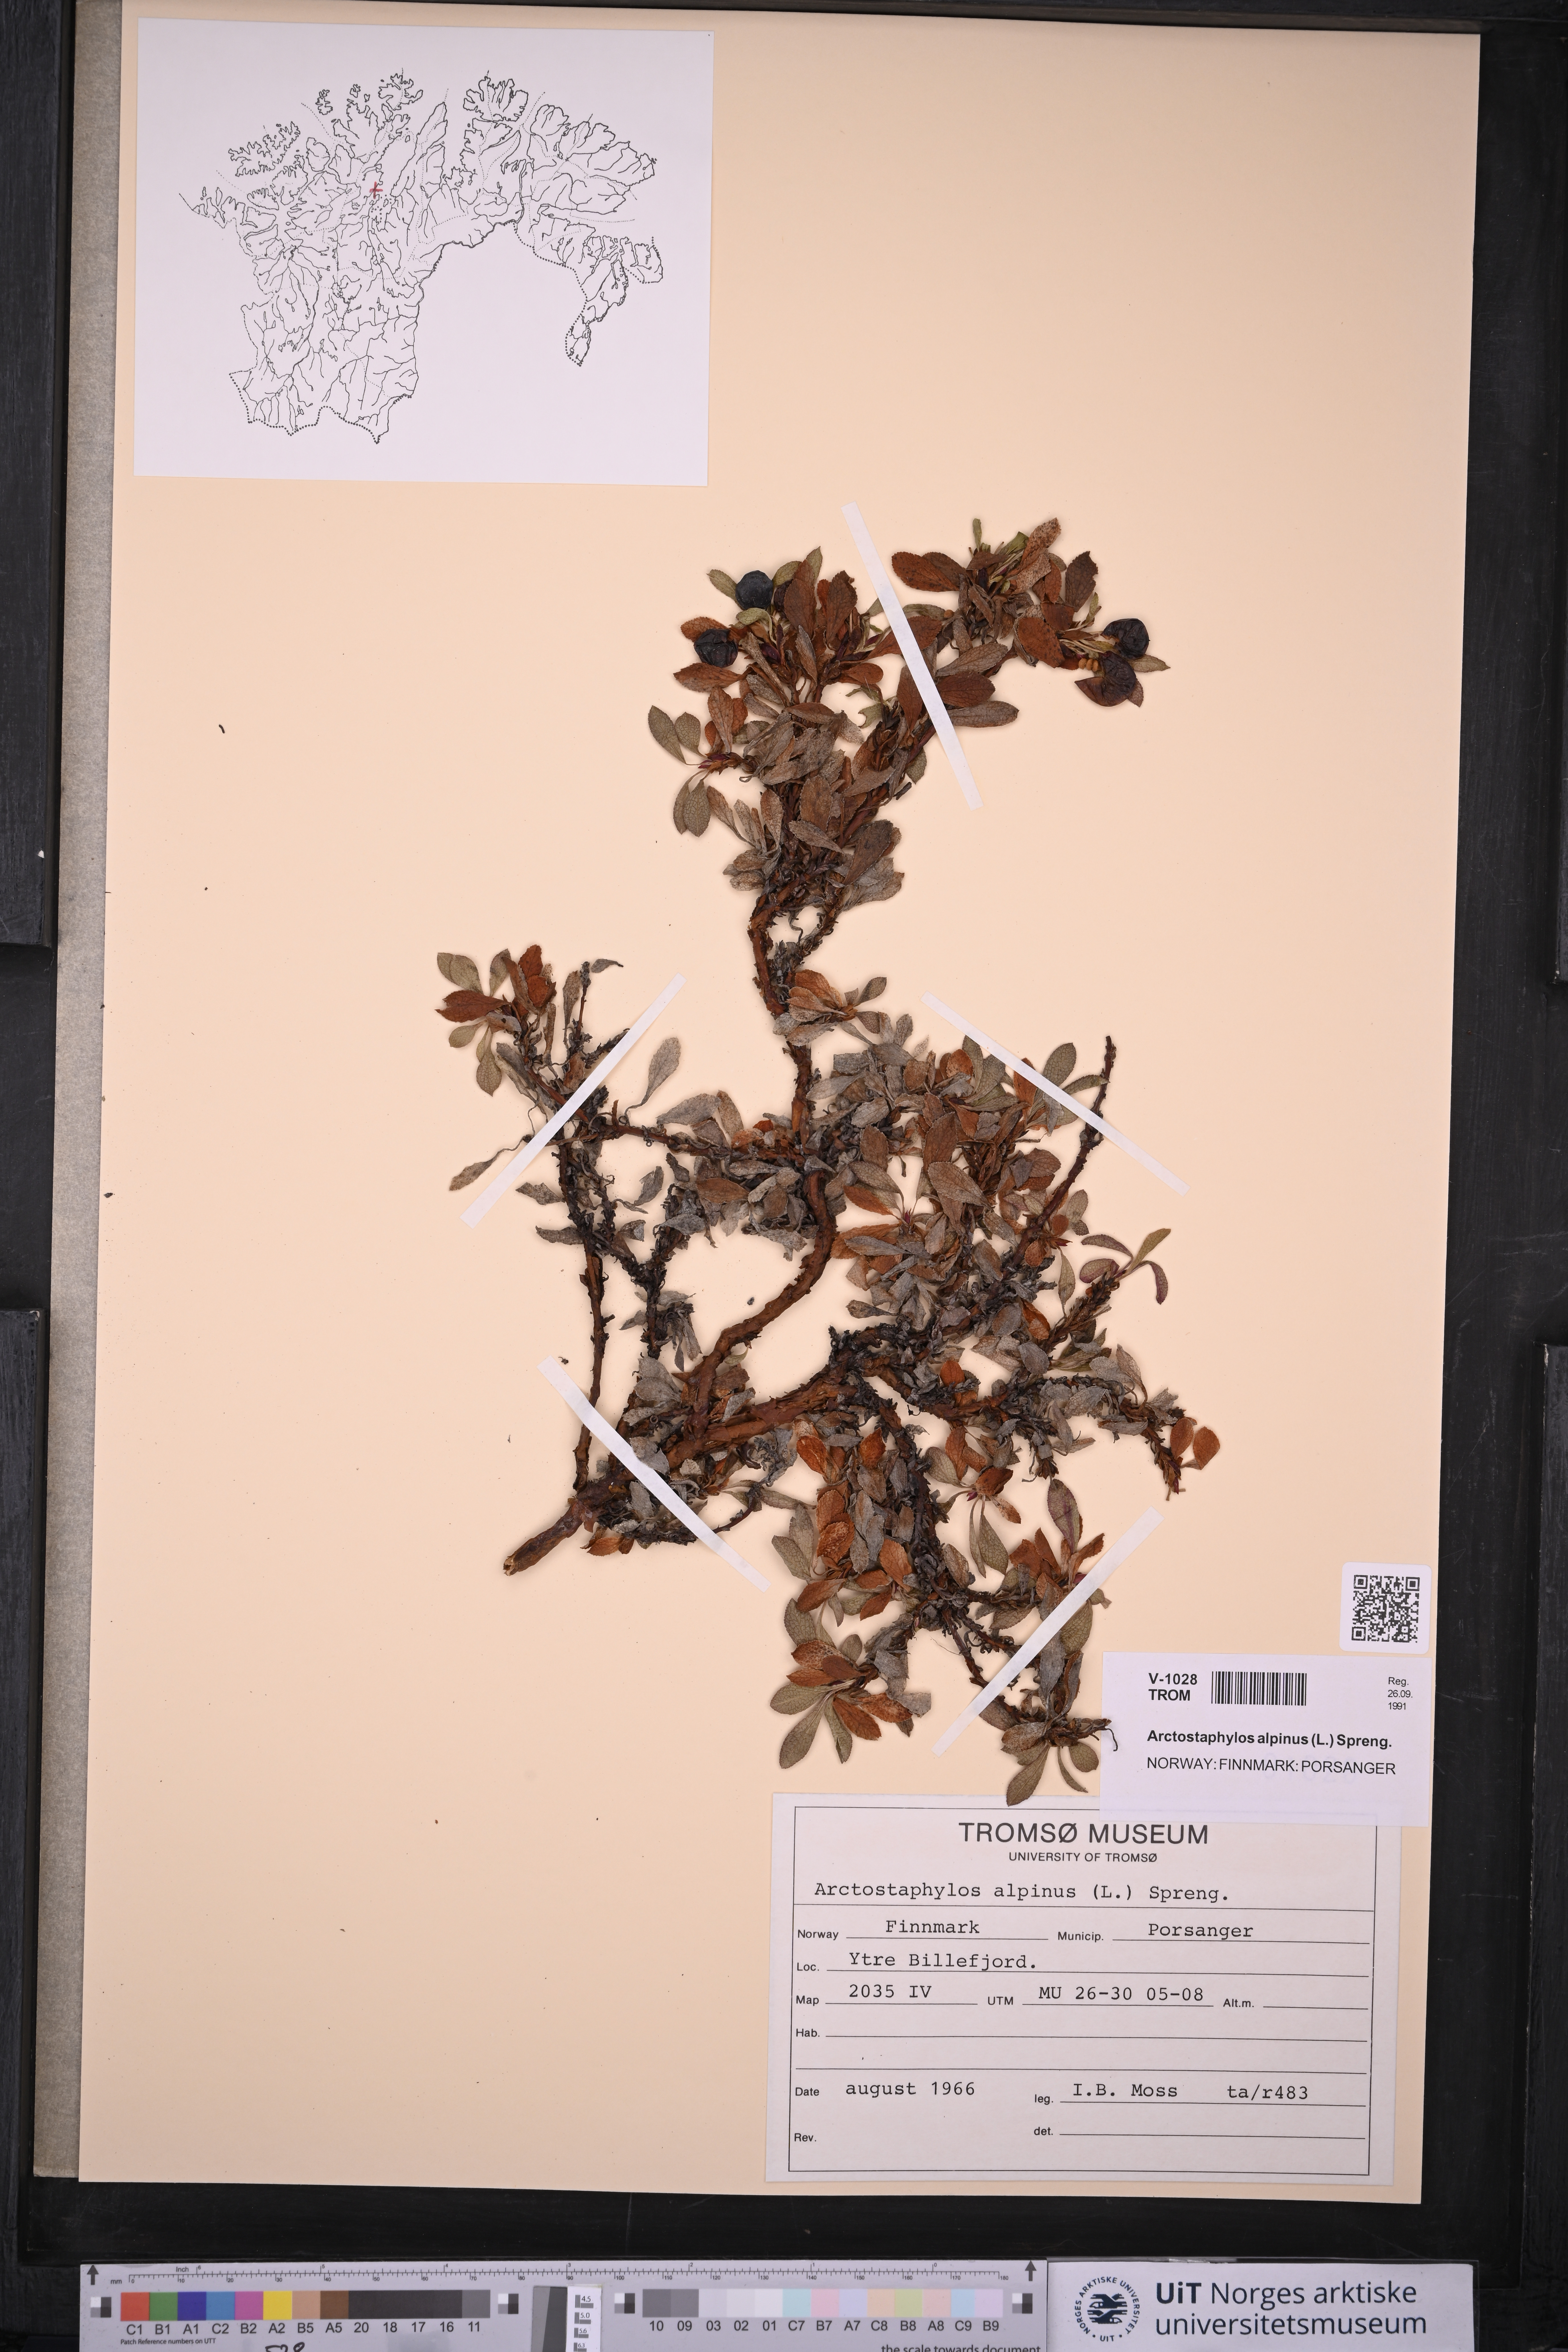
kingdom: Plantae
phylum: Tracheophyta
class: Magnoliopsida
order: Ericales
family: Ericaceae
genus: Arctostaphylos
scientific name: Arctostaphylos alpinus
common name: Alpine bearberry
